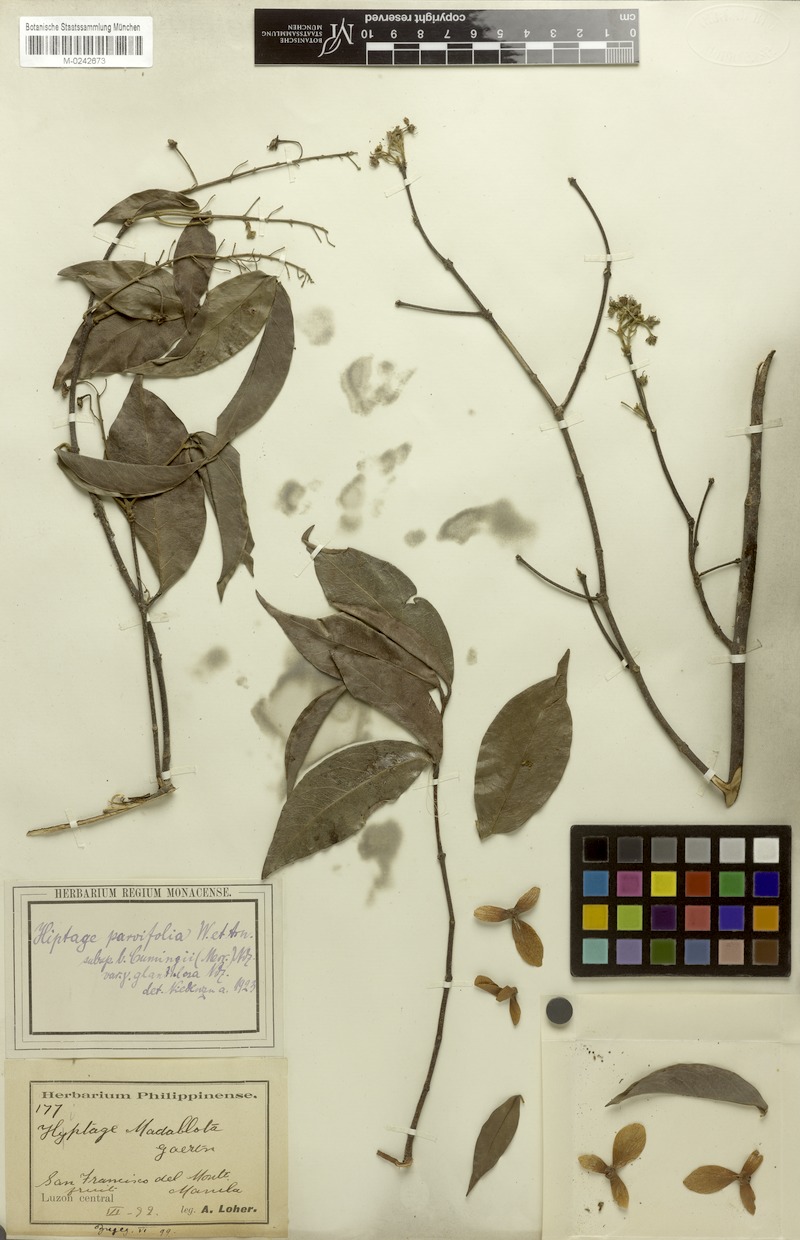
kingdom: Plantae
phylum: Tracheophyta
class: Magnoliopsida
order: Malpighiales
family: Malpighiaceae
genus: Hiptage
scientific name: Hiptage luzonica
